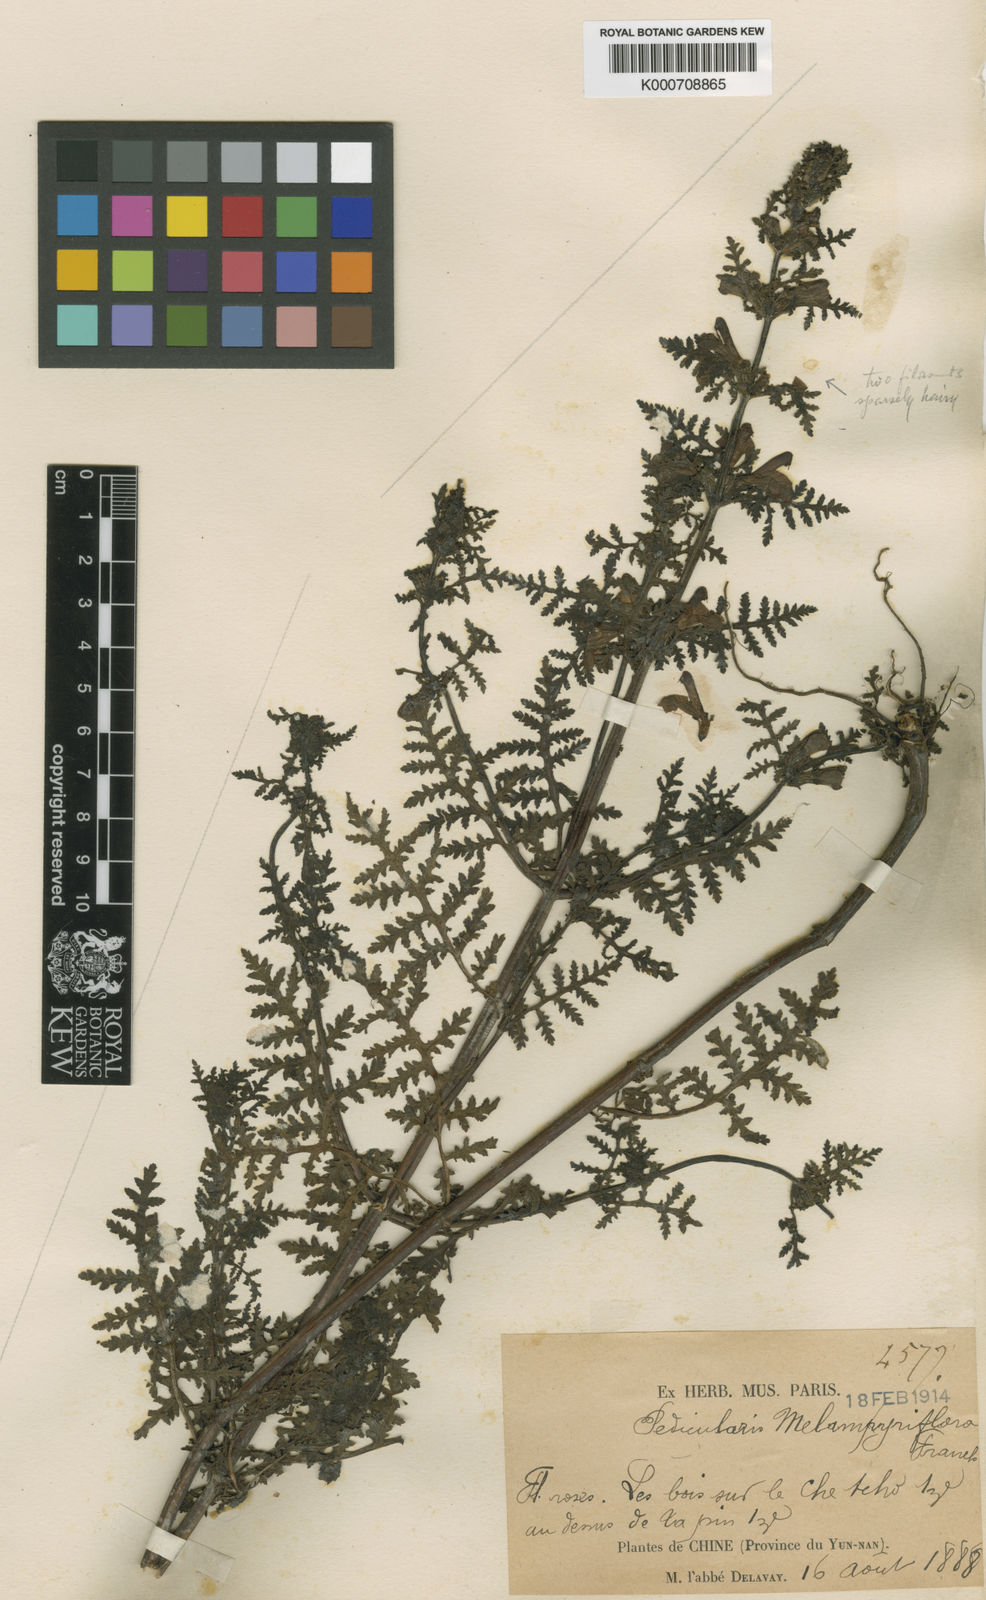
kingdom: Plantae
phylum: Tracheophyta
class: Magnoliopsida
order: Lamiales
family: Orobanchaceae
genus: Pedicularis
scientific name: Pedicularis
